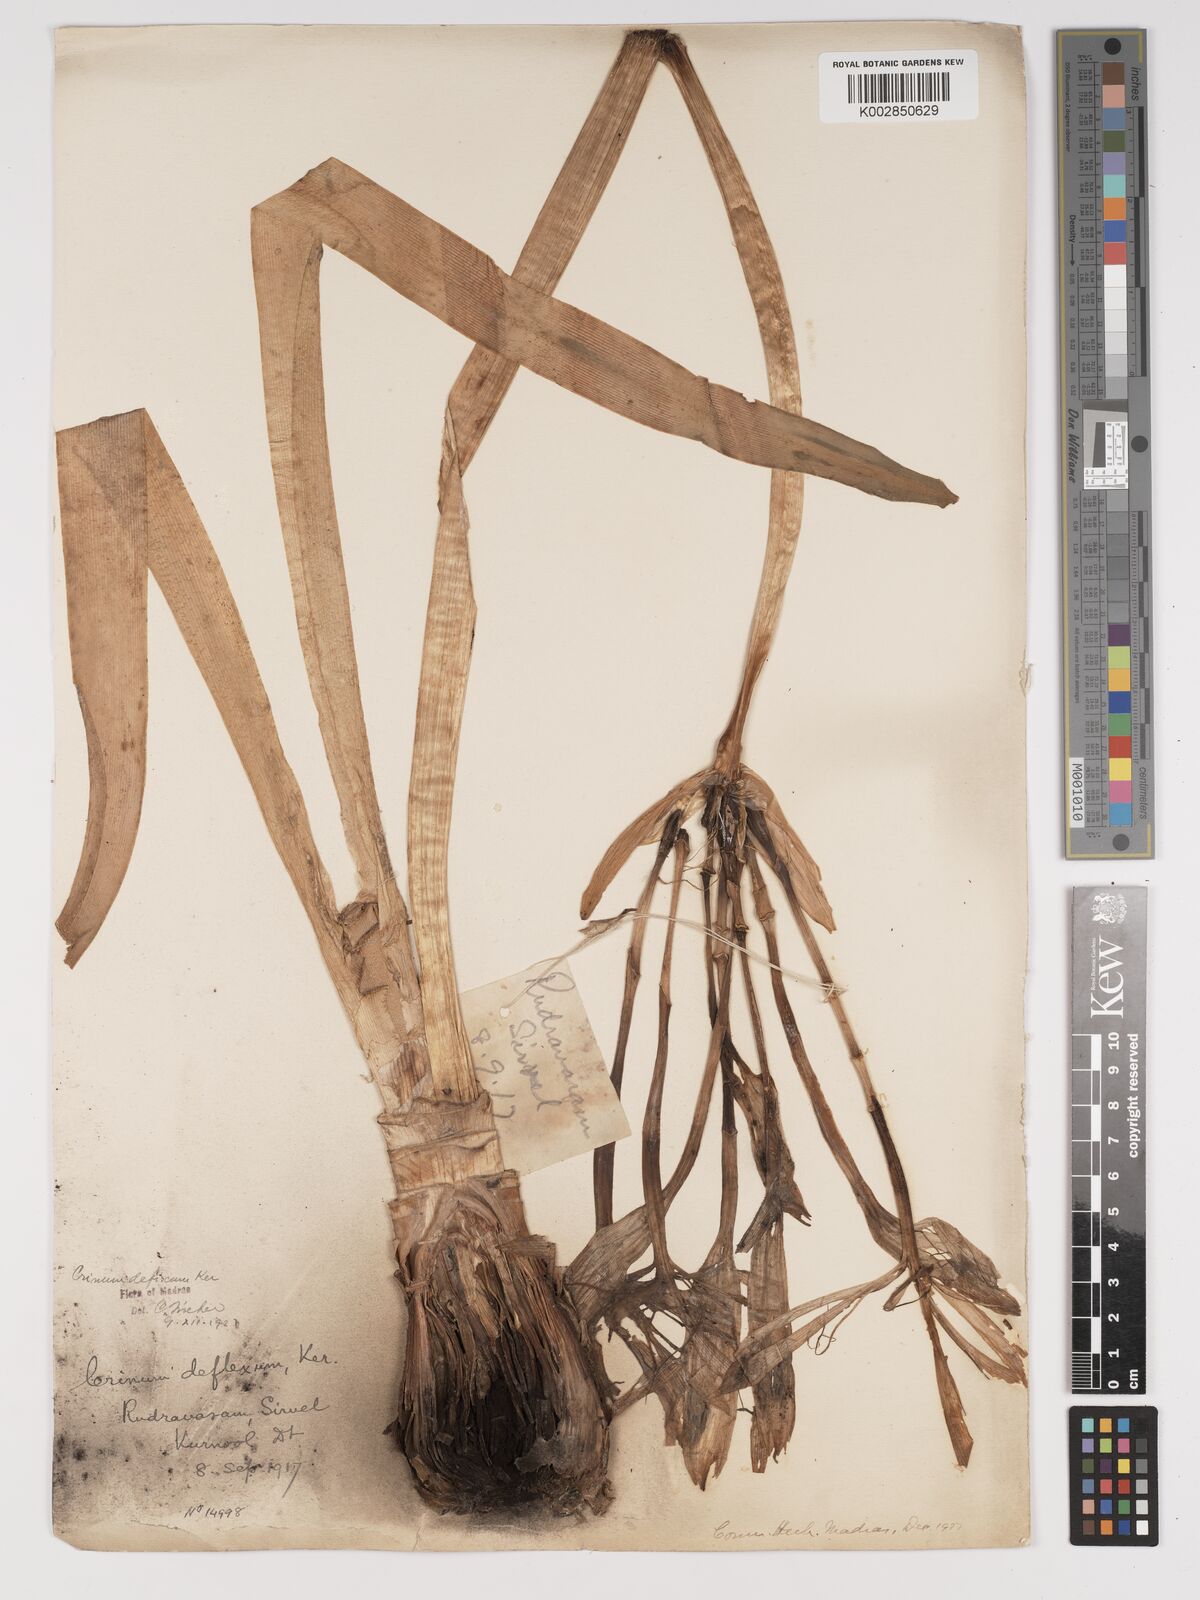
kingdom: Plantae
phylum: Tracheophyta
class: Liliopsida
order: Asparagales
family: Amaryllidaceae
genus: Crinum
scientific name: Crinum defixum
